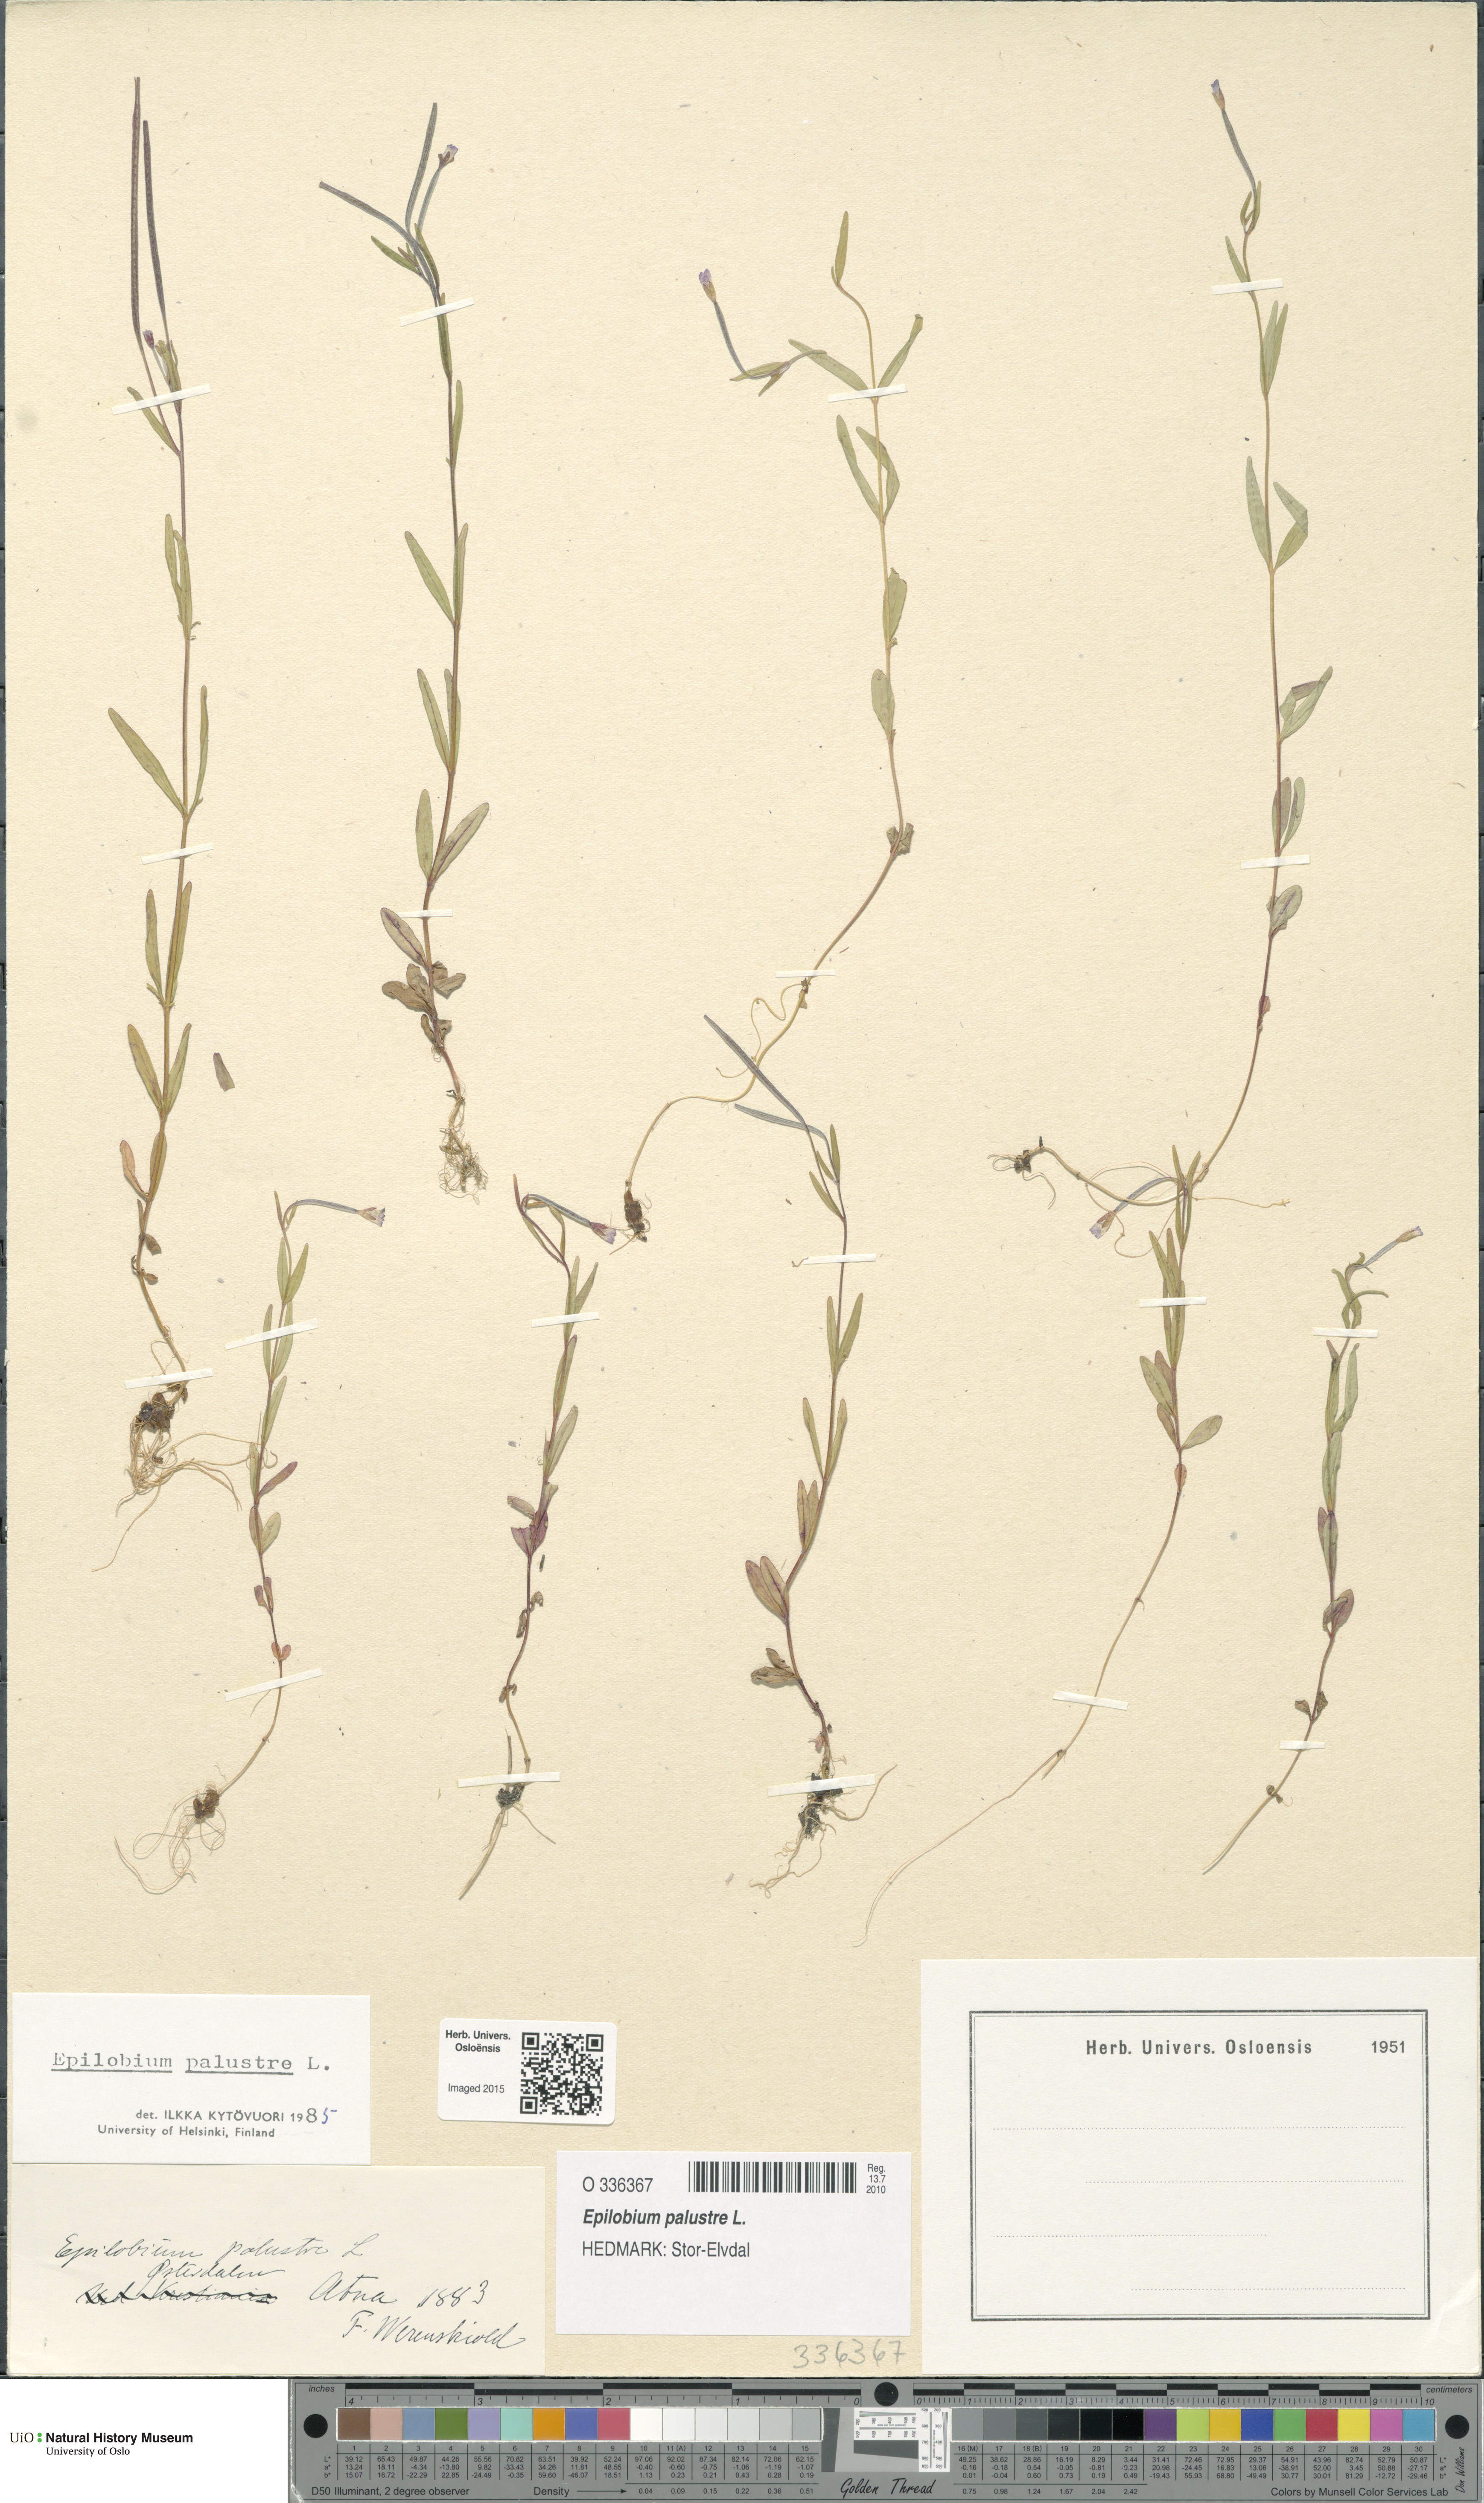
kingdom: Plantae
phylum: Tracheophyta
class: Magnoliopsida
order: Myrtales
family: Onagraceae
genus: Epilobium
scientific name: Epilobium palustre
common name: Marsh willowherb
